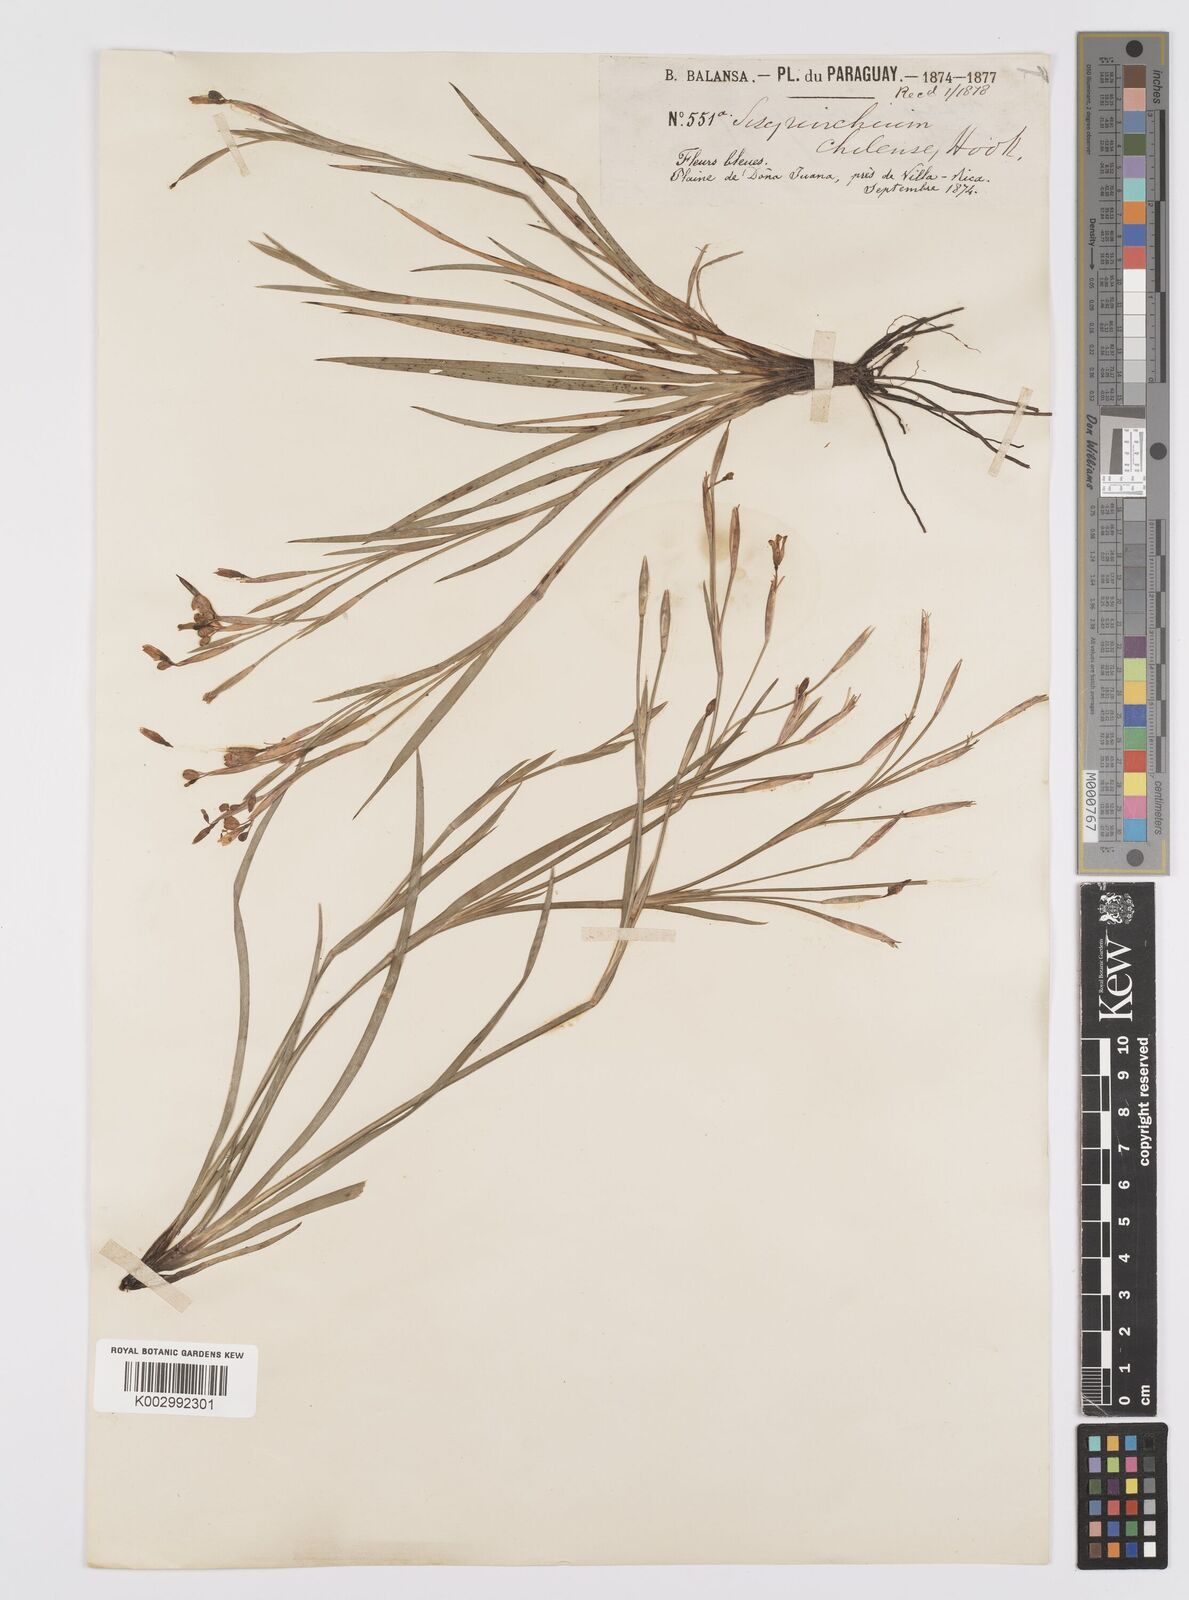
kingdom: Plantae
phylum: Tracheophyta
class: Liliopsida
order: Asparagales
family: Iridaceae
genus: Sisyrinchium
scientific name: Sisyrinchium chilense
